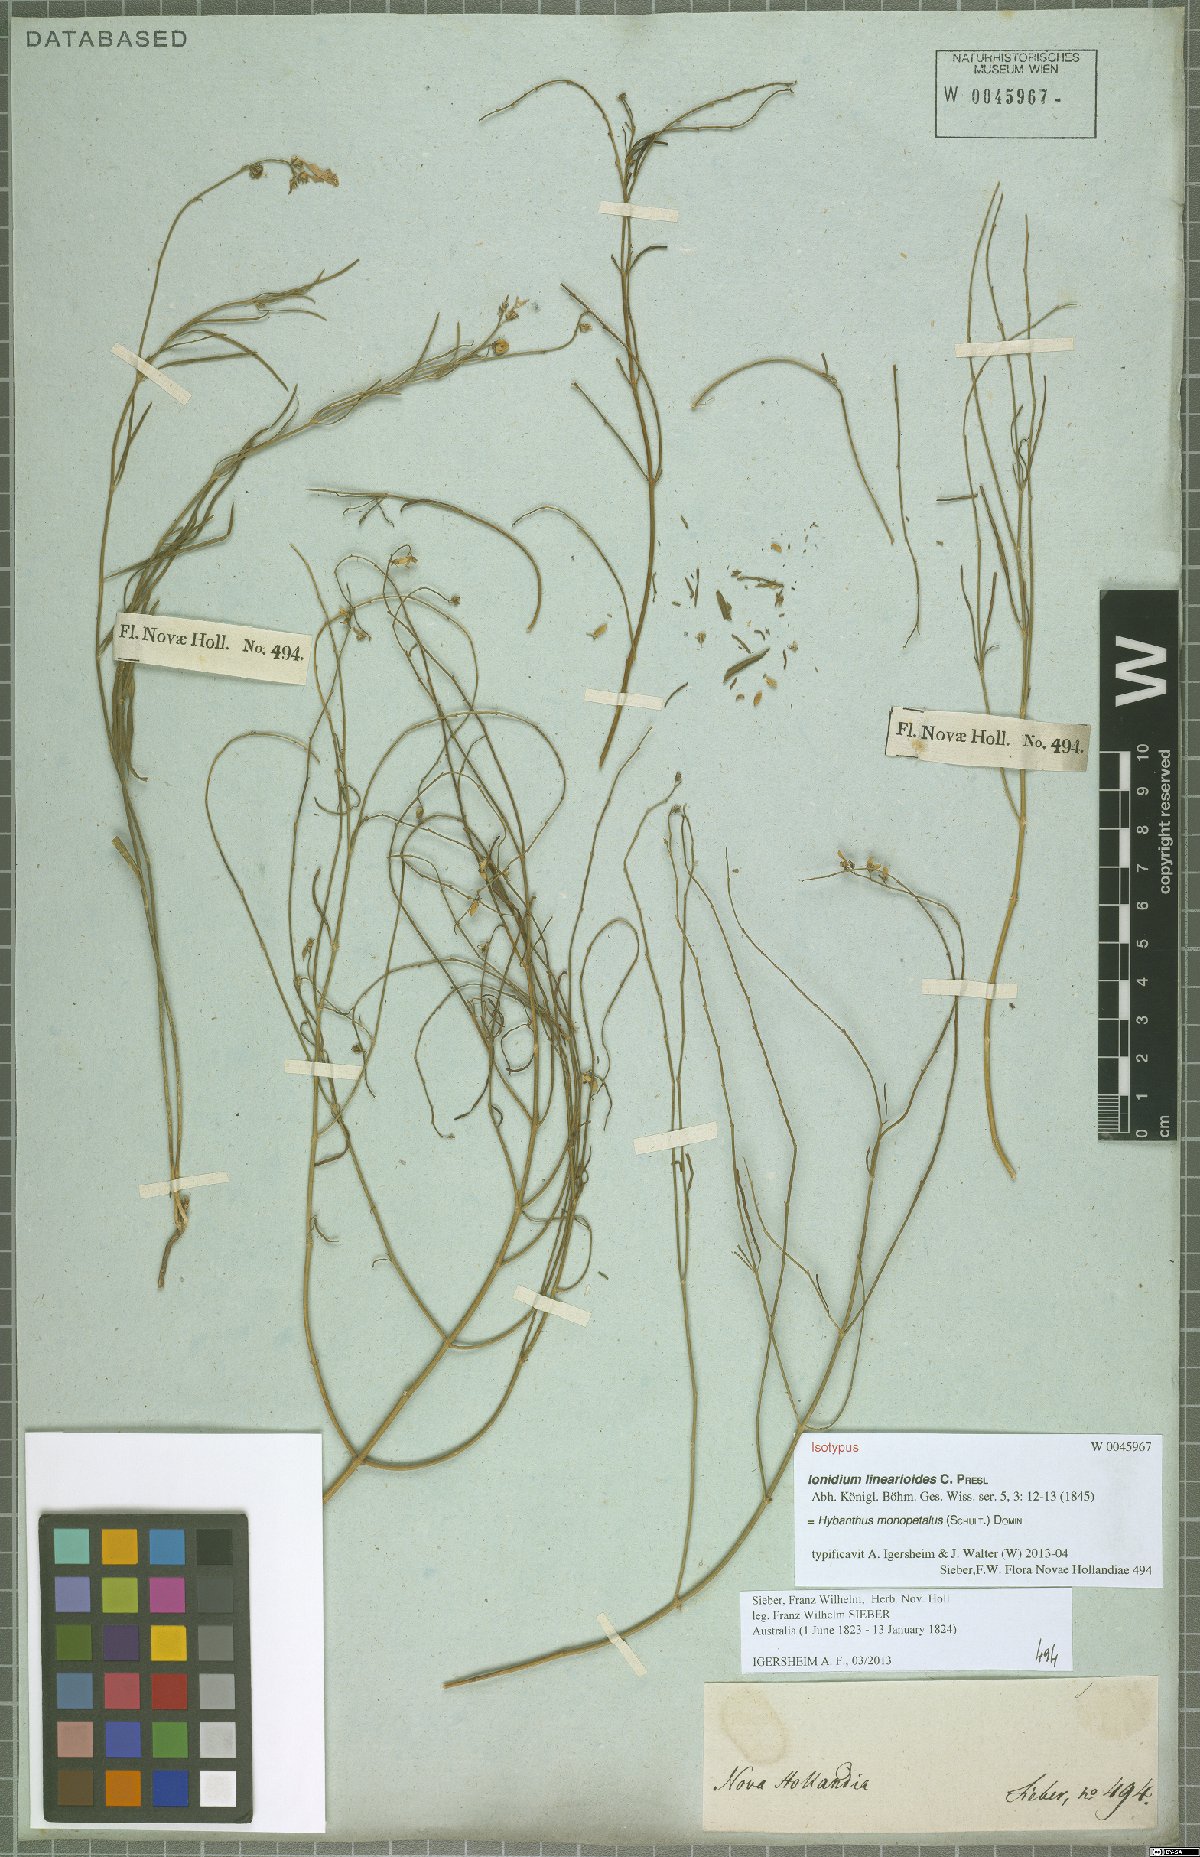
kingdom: Plantae
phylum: Tracheophyta
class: Magnoliopsida
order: Malpighiales
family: Violaceae
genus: Pigea
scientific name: Pigea monopetala
